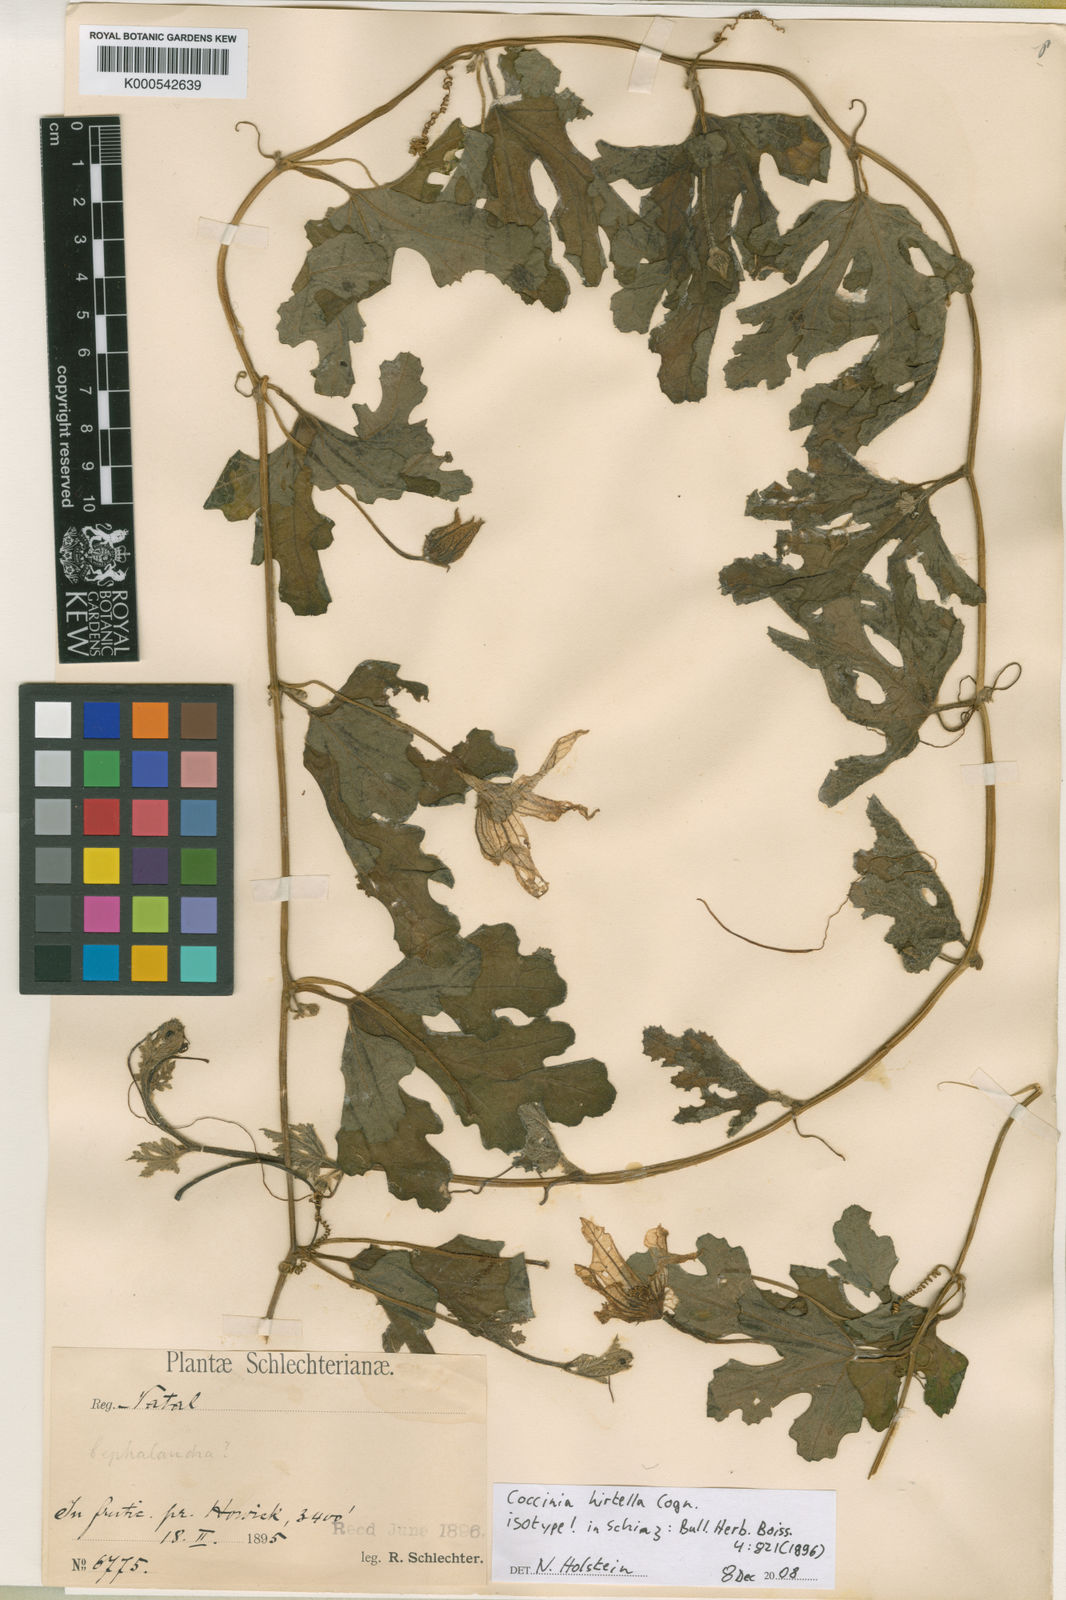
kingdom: Plantae
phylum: Tracheophyta
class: Magnoliopsida
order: Cucurbitales
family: Cucurbitaceae
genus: Coccinia
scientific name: Coccinia hirtella
